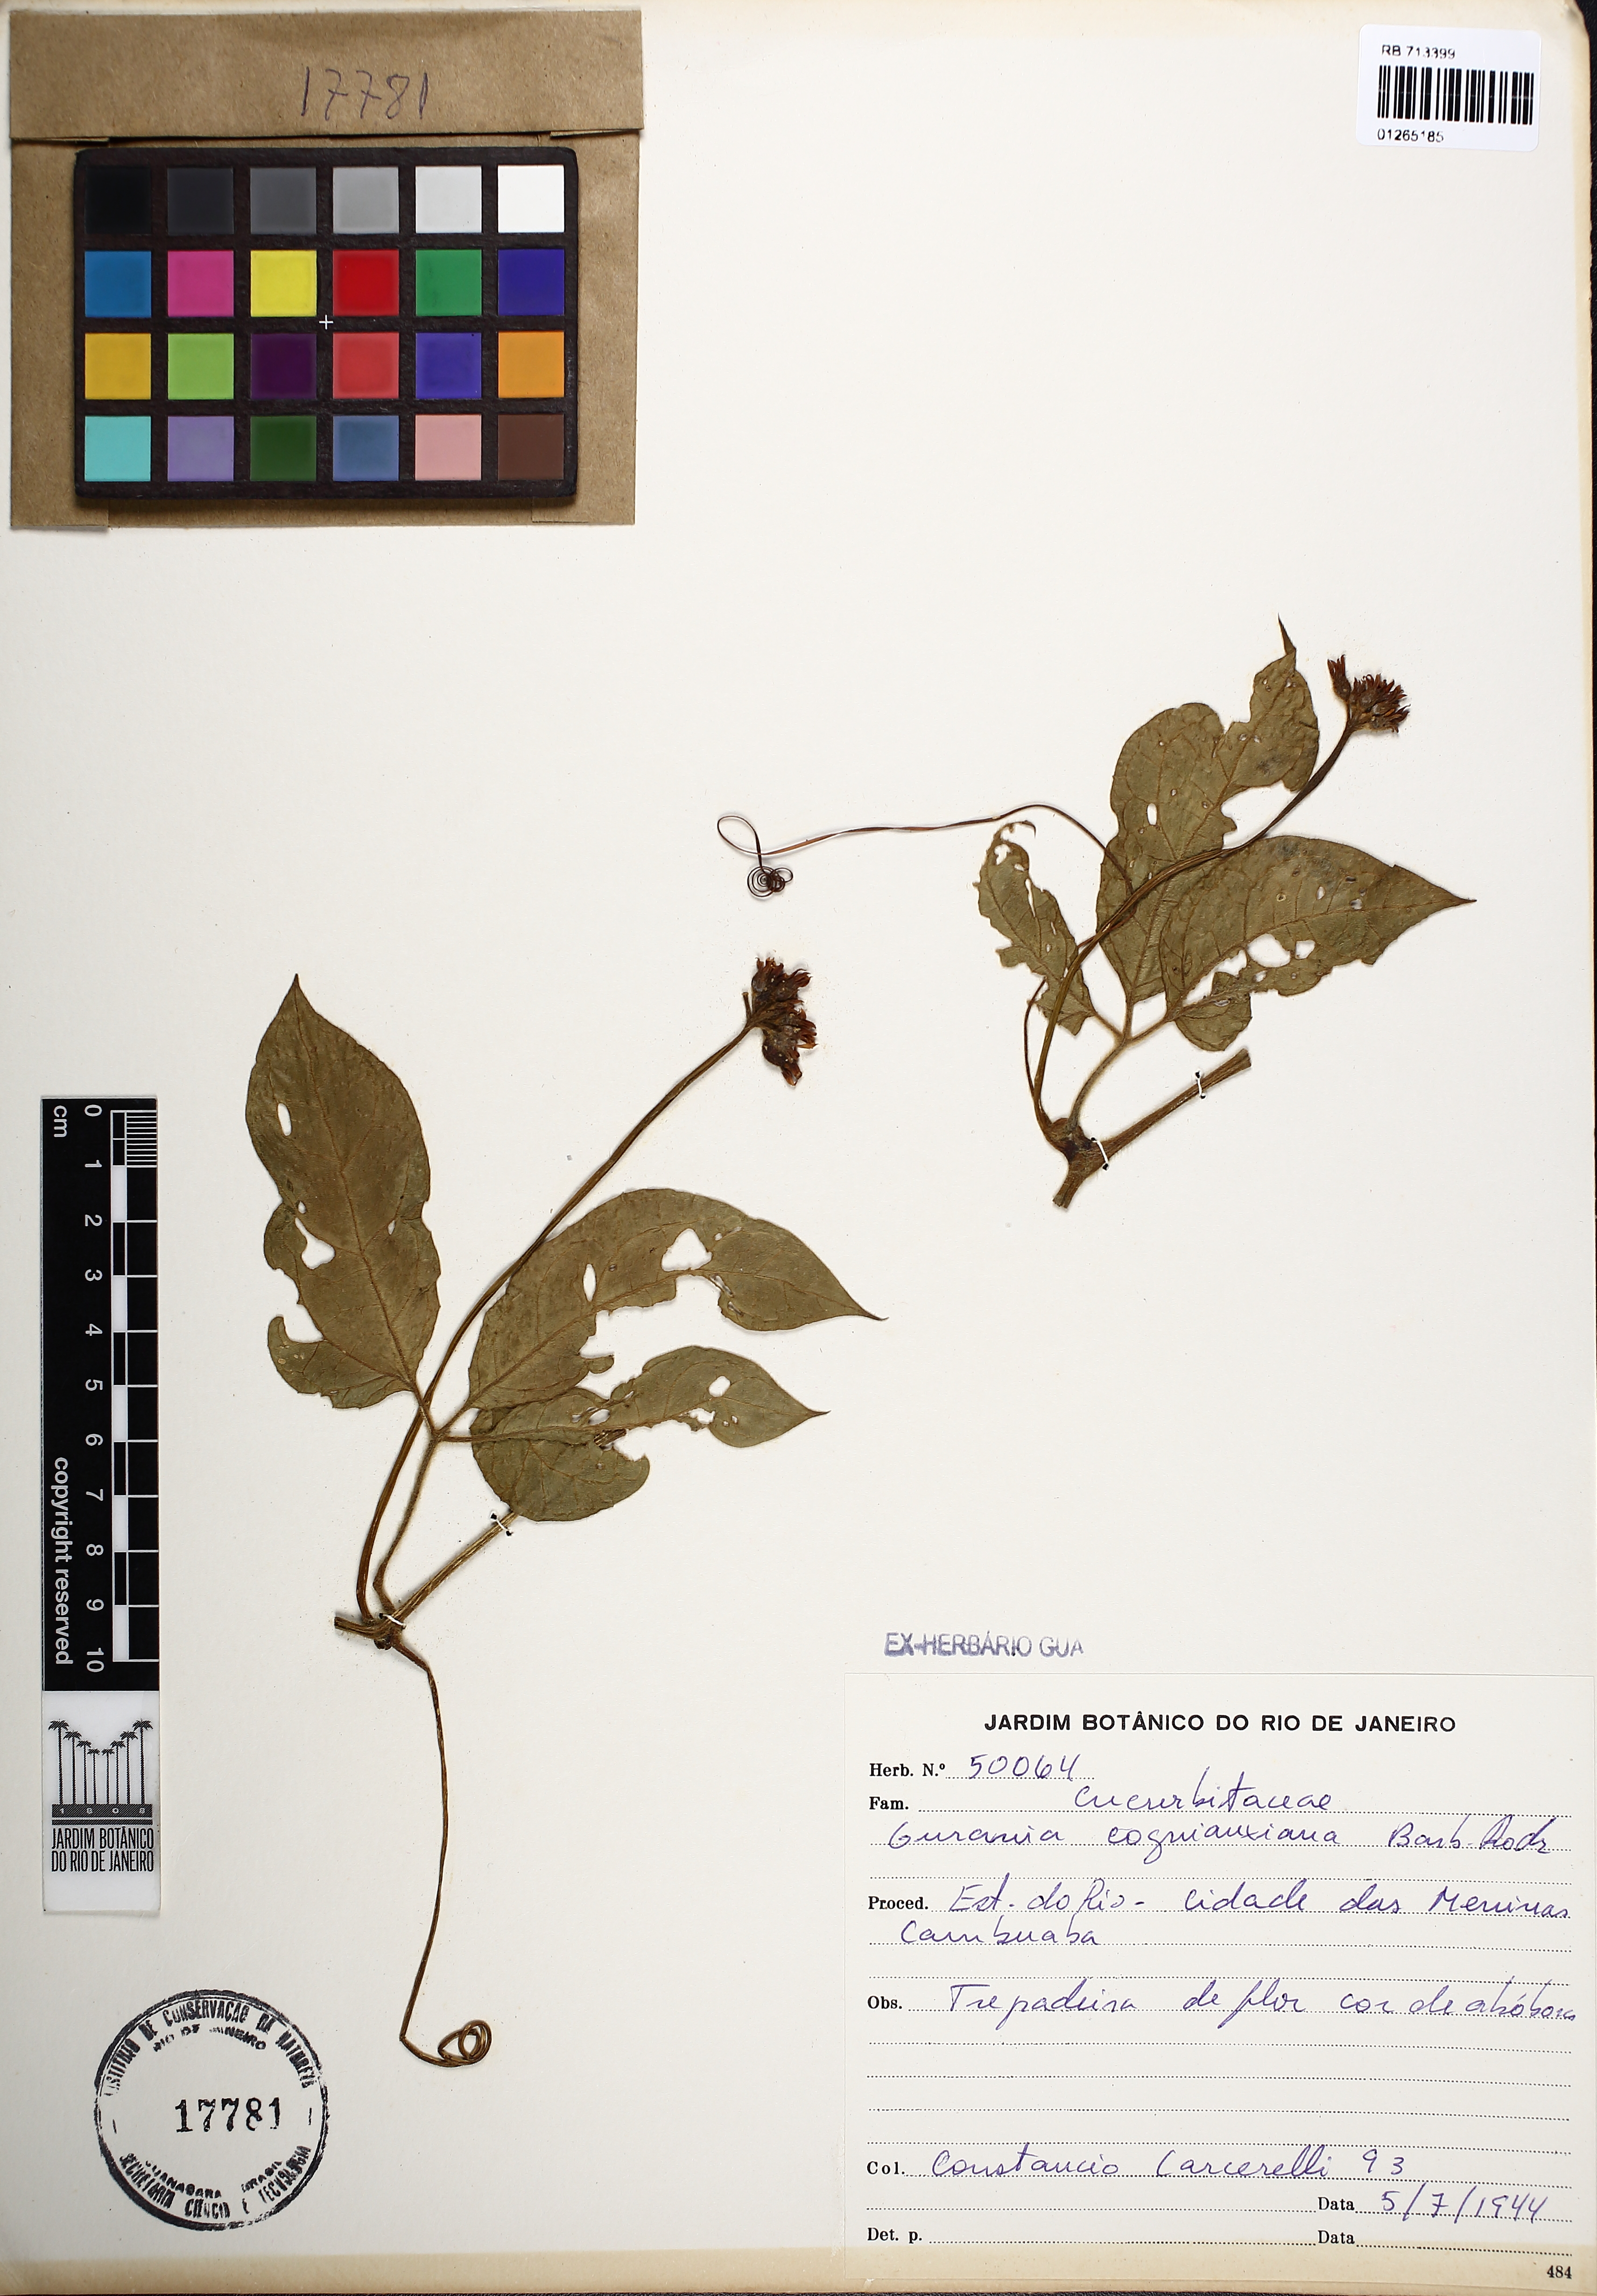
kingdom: Plantae
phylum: Tracheophyta
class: Magnoliopsida
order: Cucurbitales
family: Cucurbitaceae
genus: Gurania
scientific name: Gurania cogniauxiana
